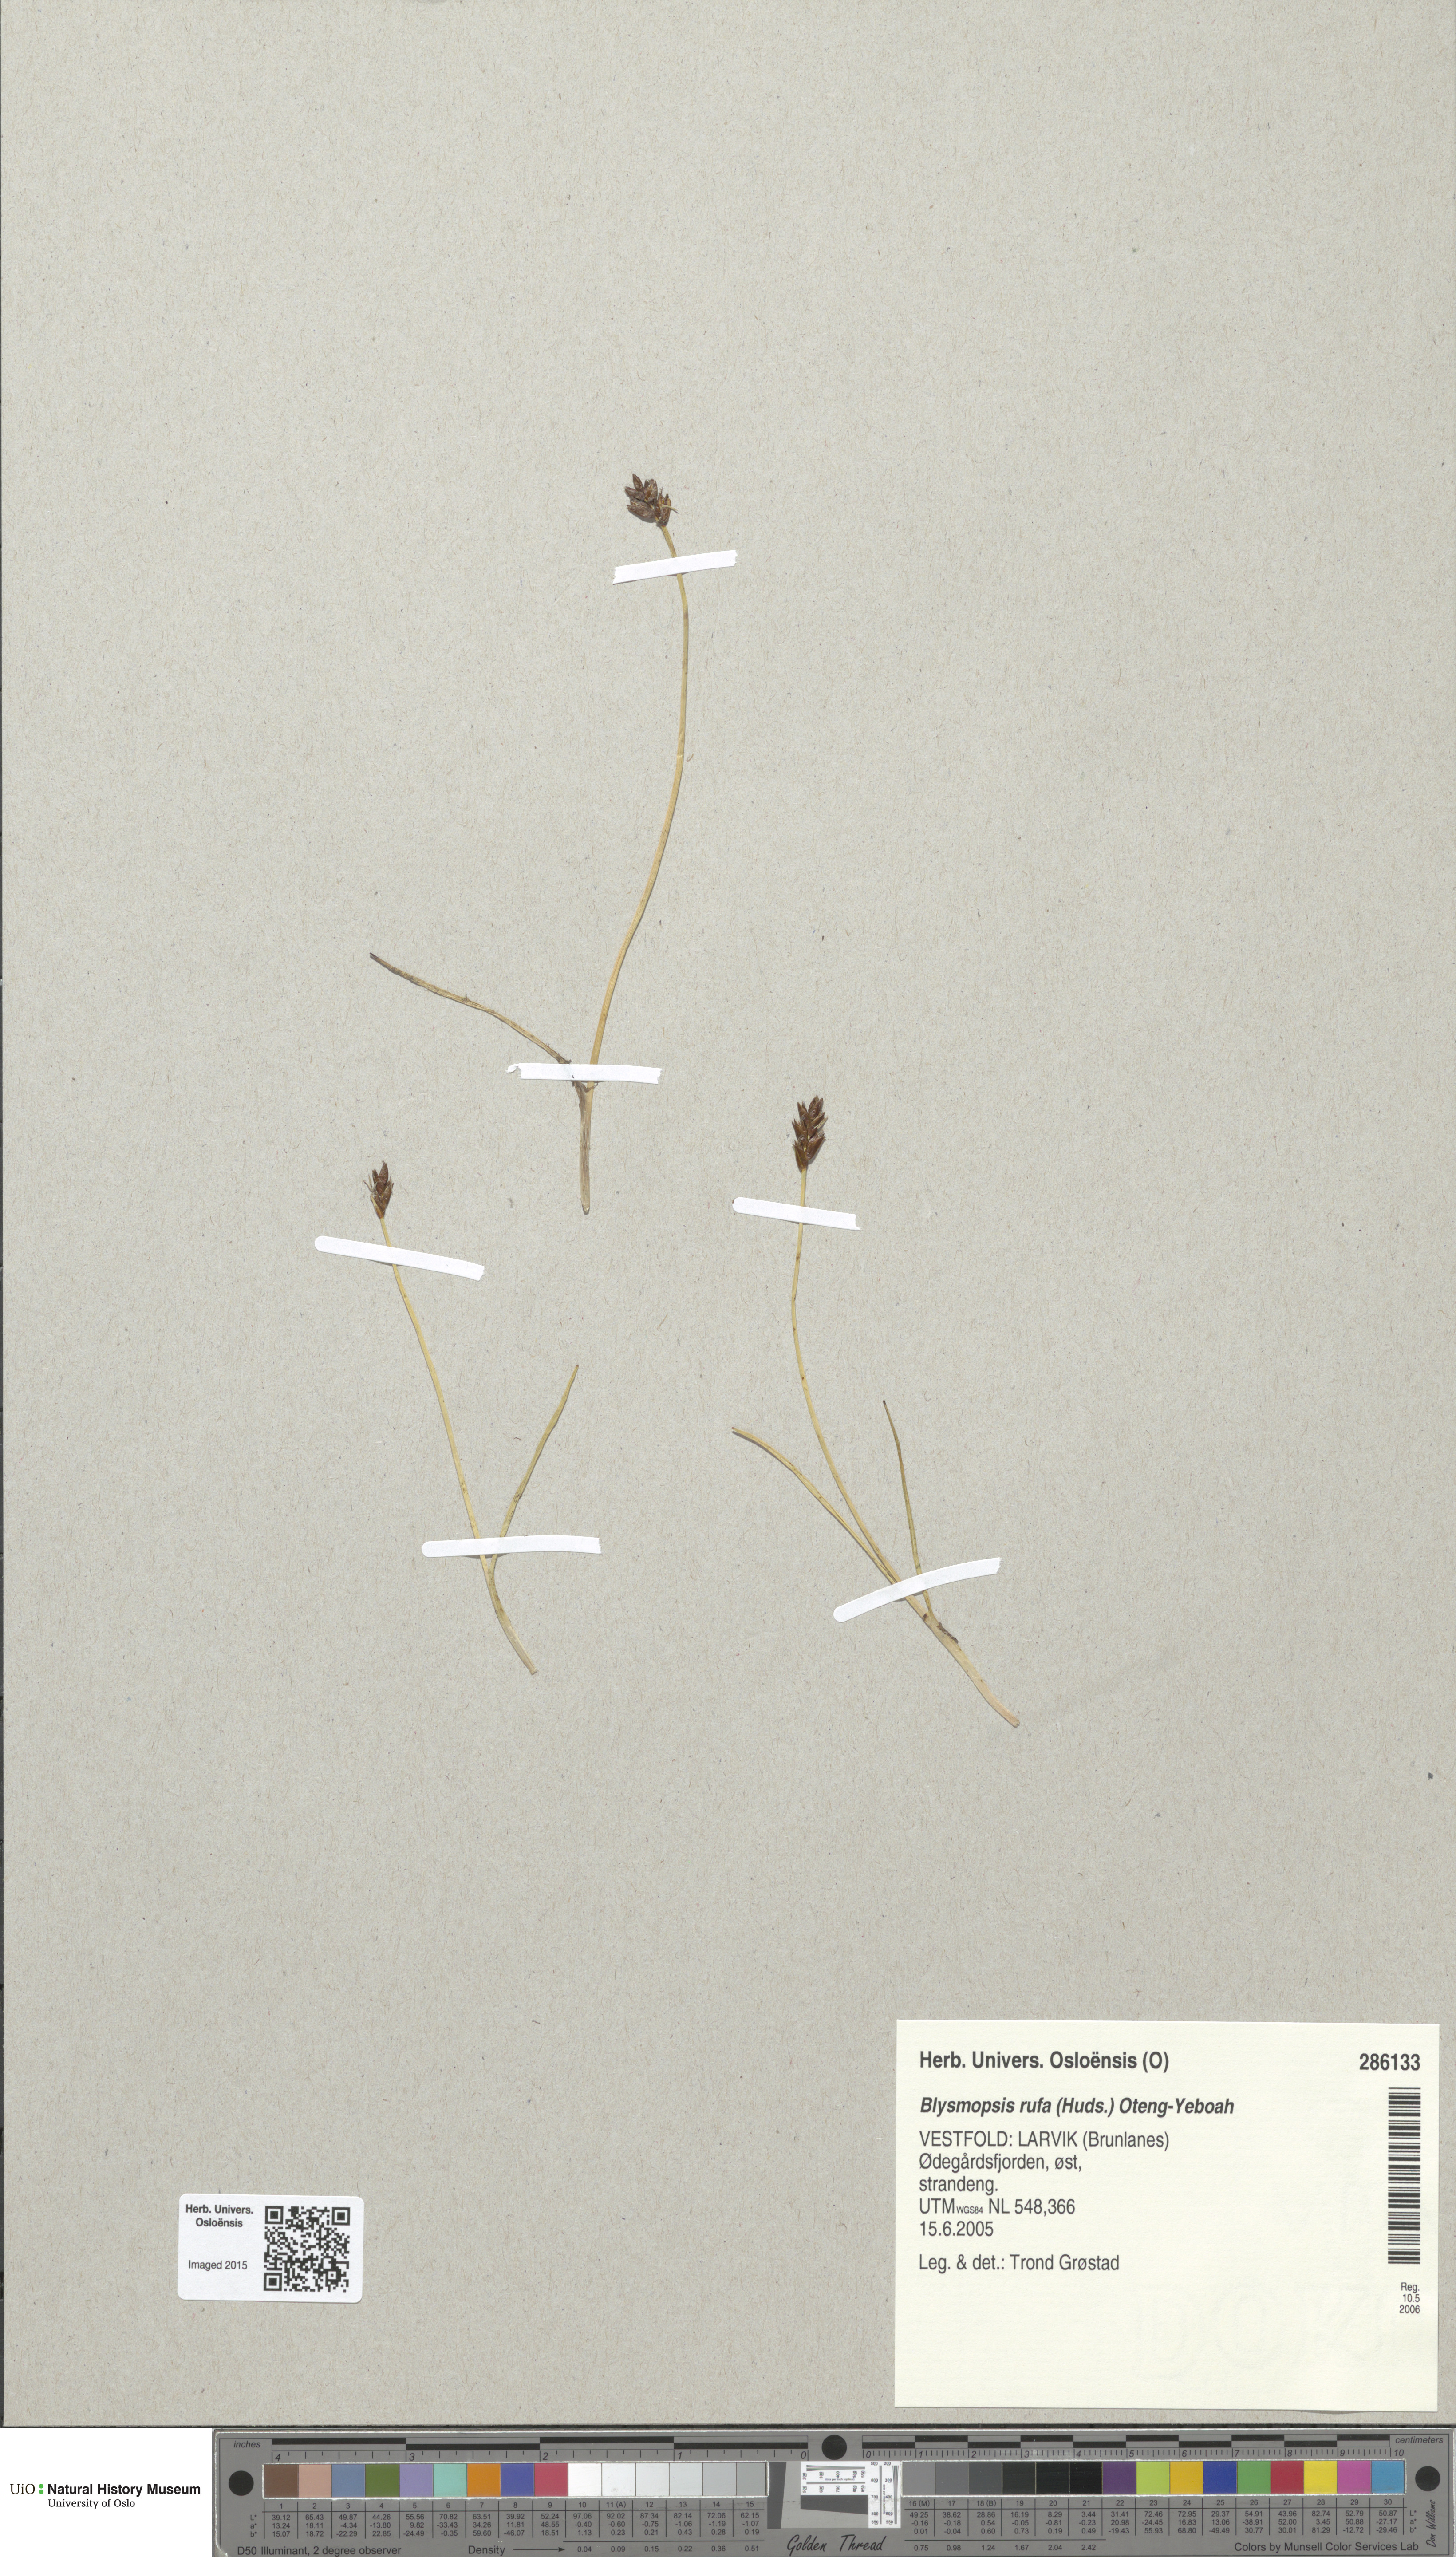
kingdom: Plantae
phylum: Tracheophyta
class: Liliopsida
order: Poales
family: Cyperaceae
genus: Blysmus
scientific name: Blysmus rufus
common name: Saltmarsh flat-sedge
